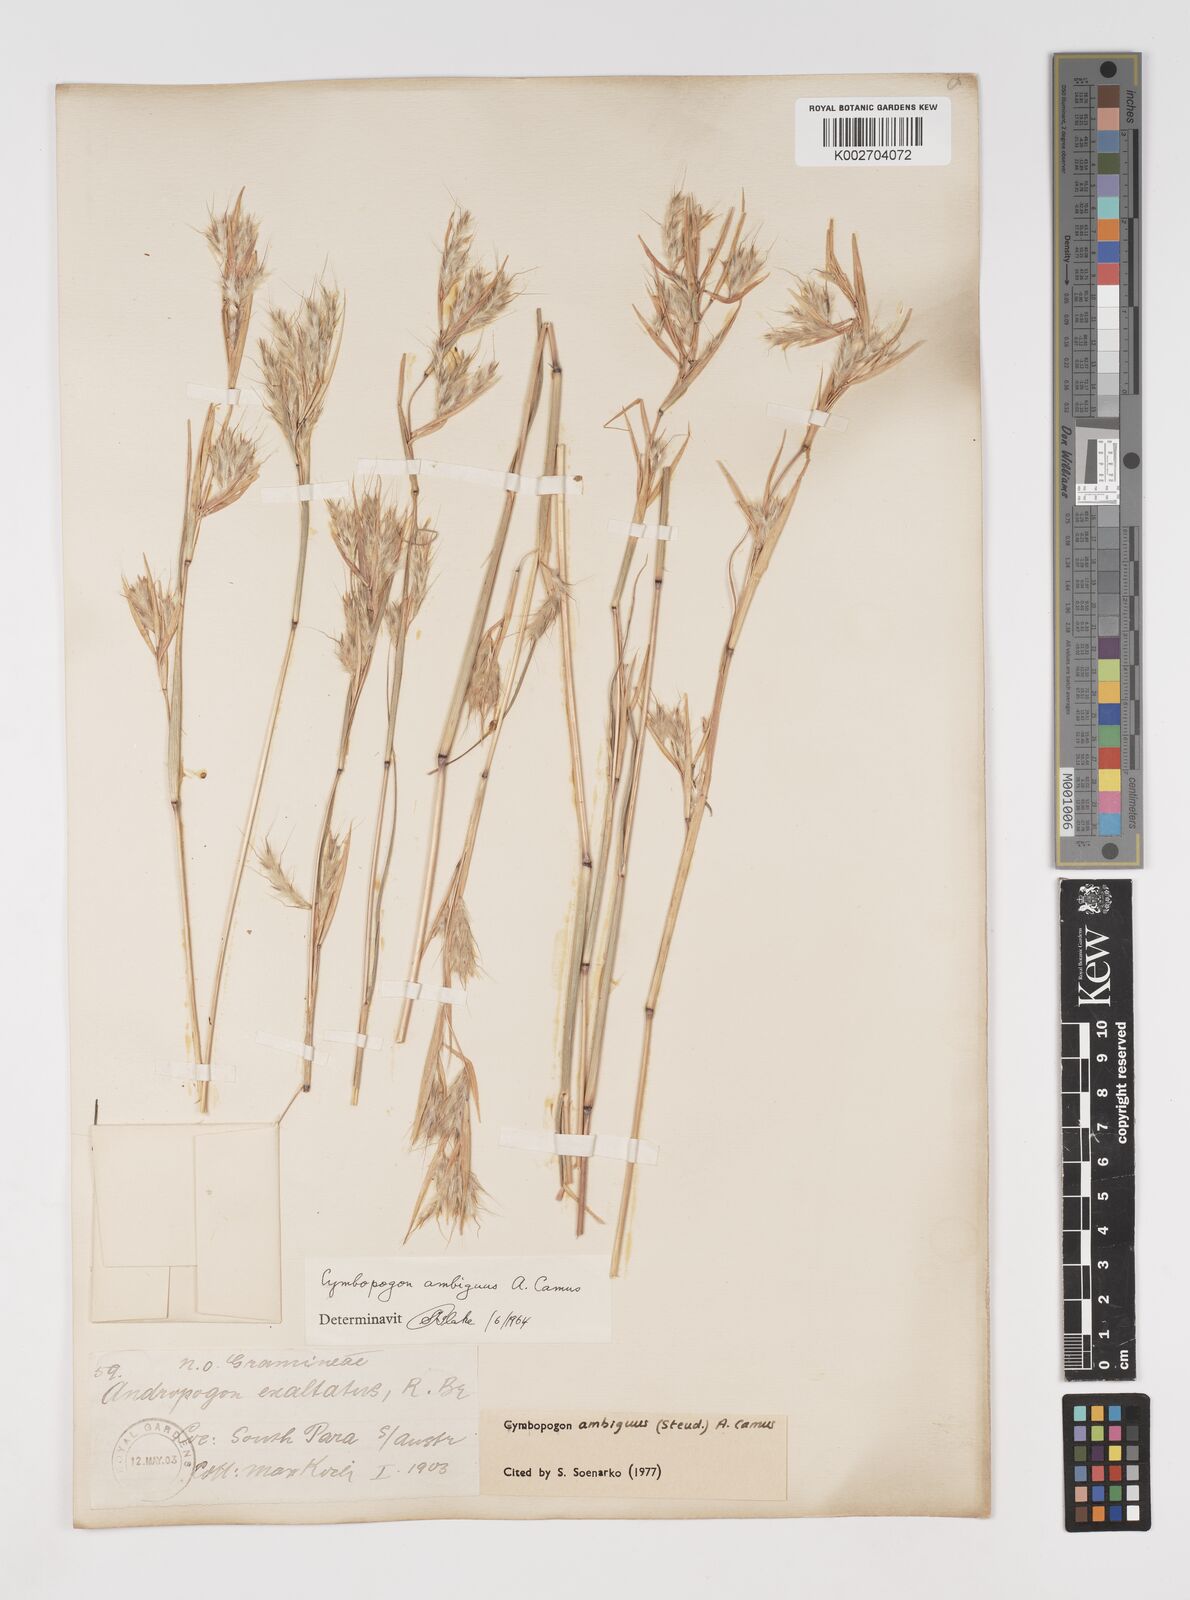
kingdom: Plantae
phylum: Tracheophyta
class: Liliopsida
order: Poales
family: Poaceae
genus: Cymbopogon
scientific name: Cymbopogon ambiguus
